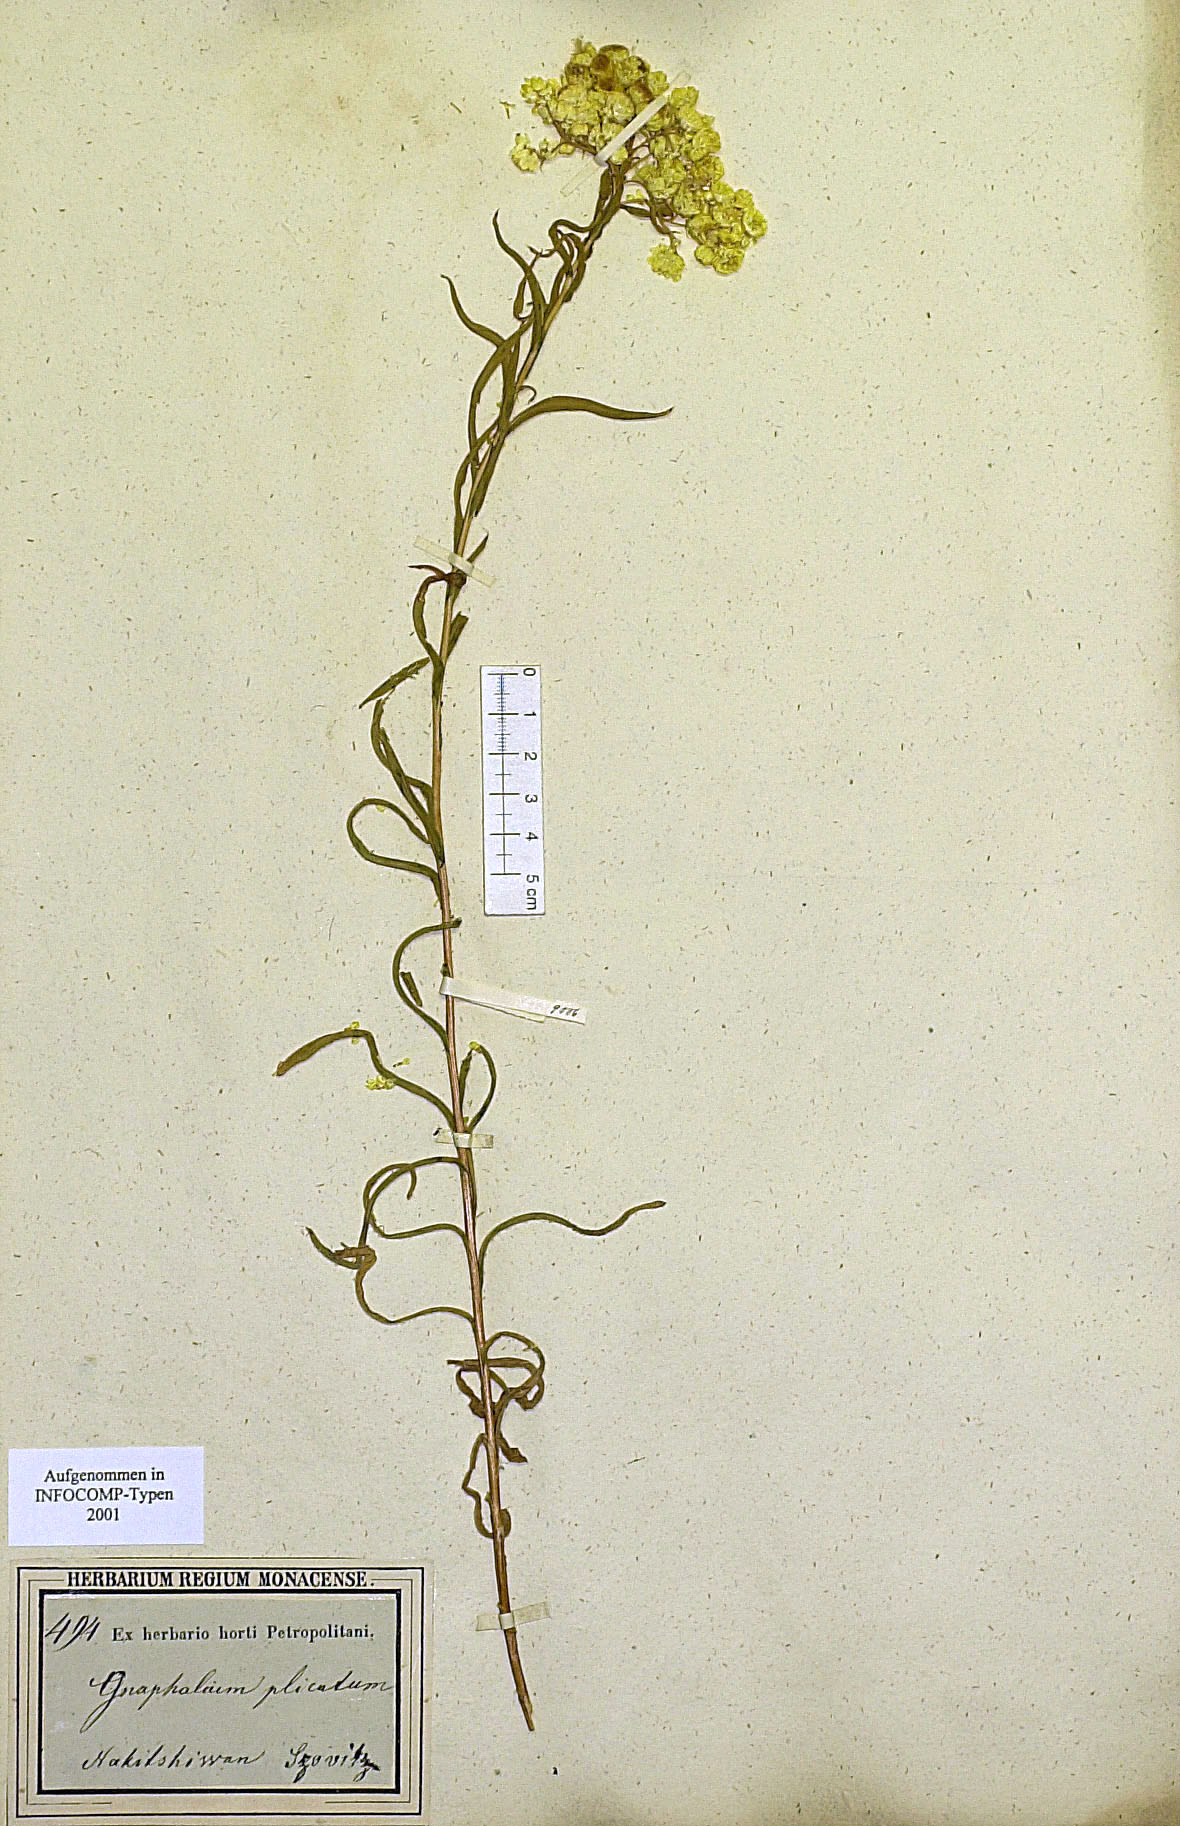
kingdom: Plantae
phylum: Tracheophyta
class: Magnoliopsida
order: Asterales
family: Asteraceae
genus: Helichrysum
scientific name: Helichrysum plicatum
